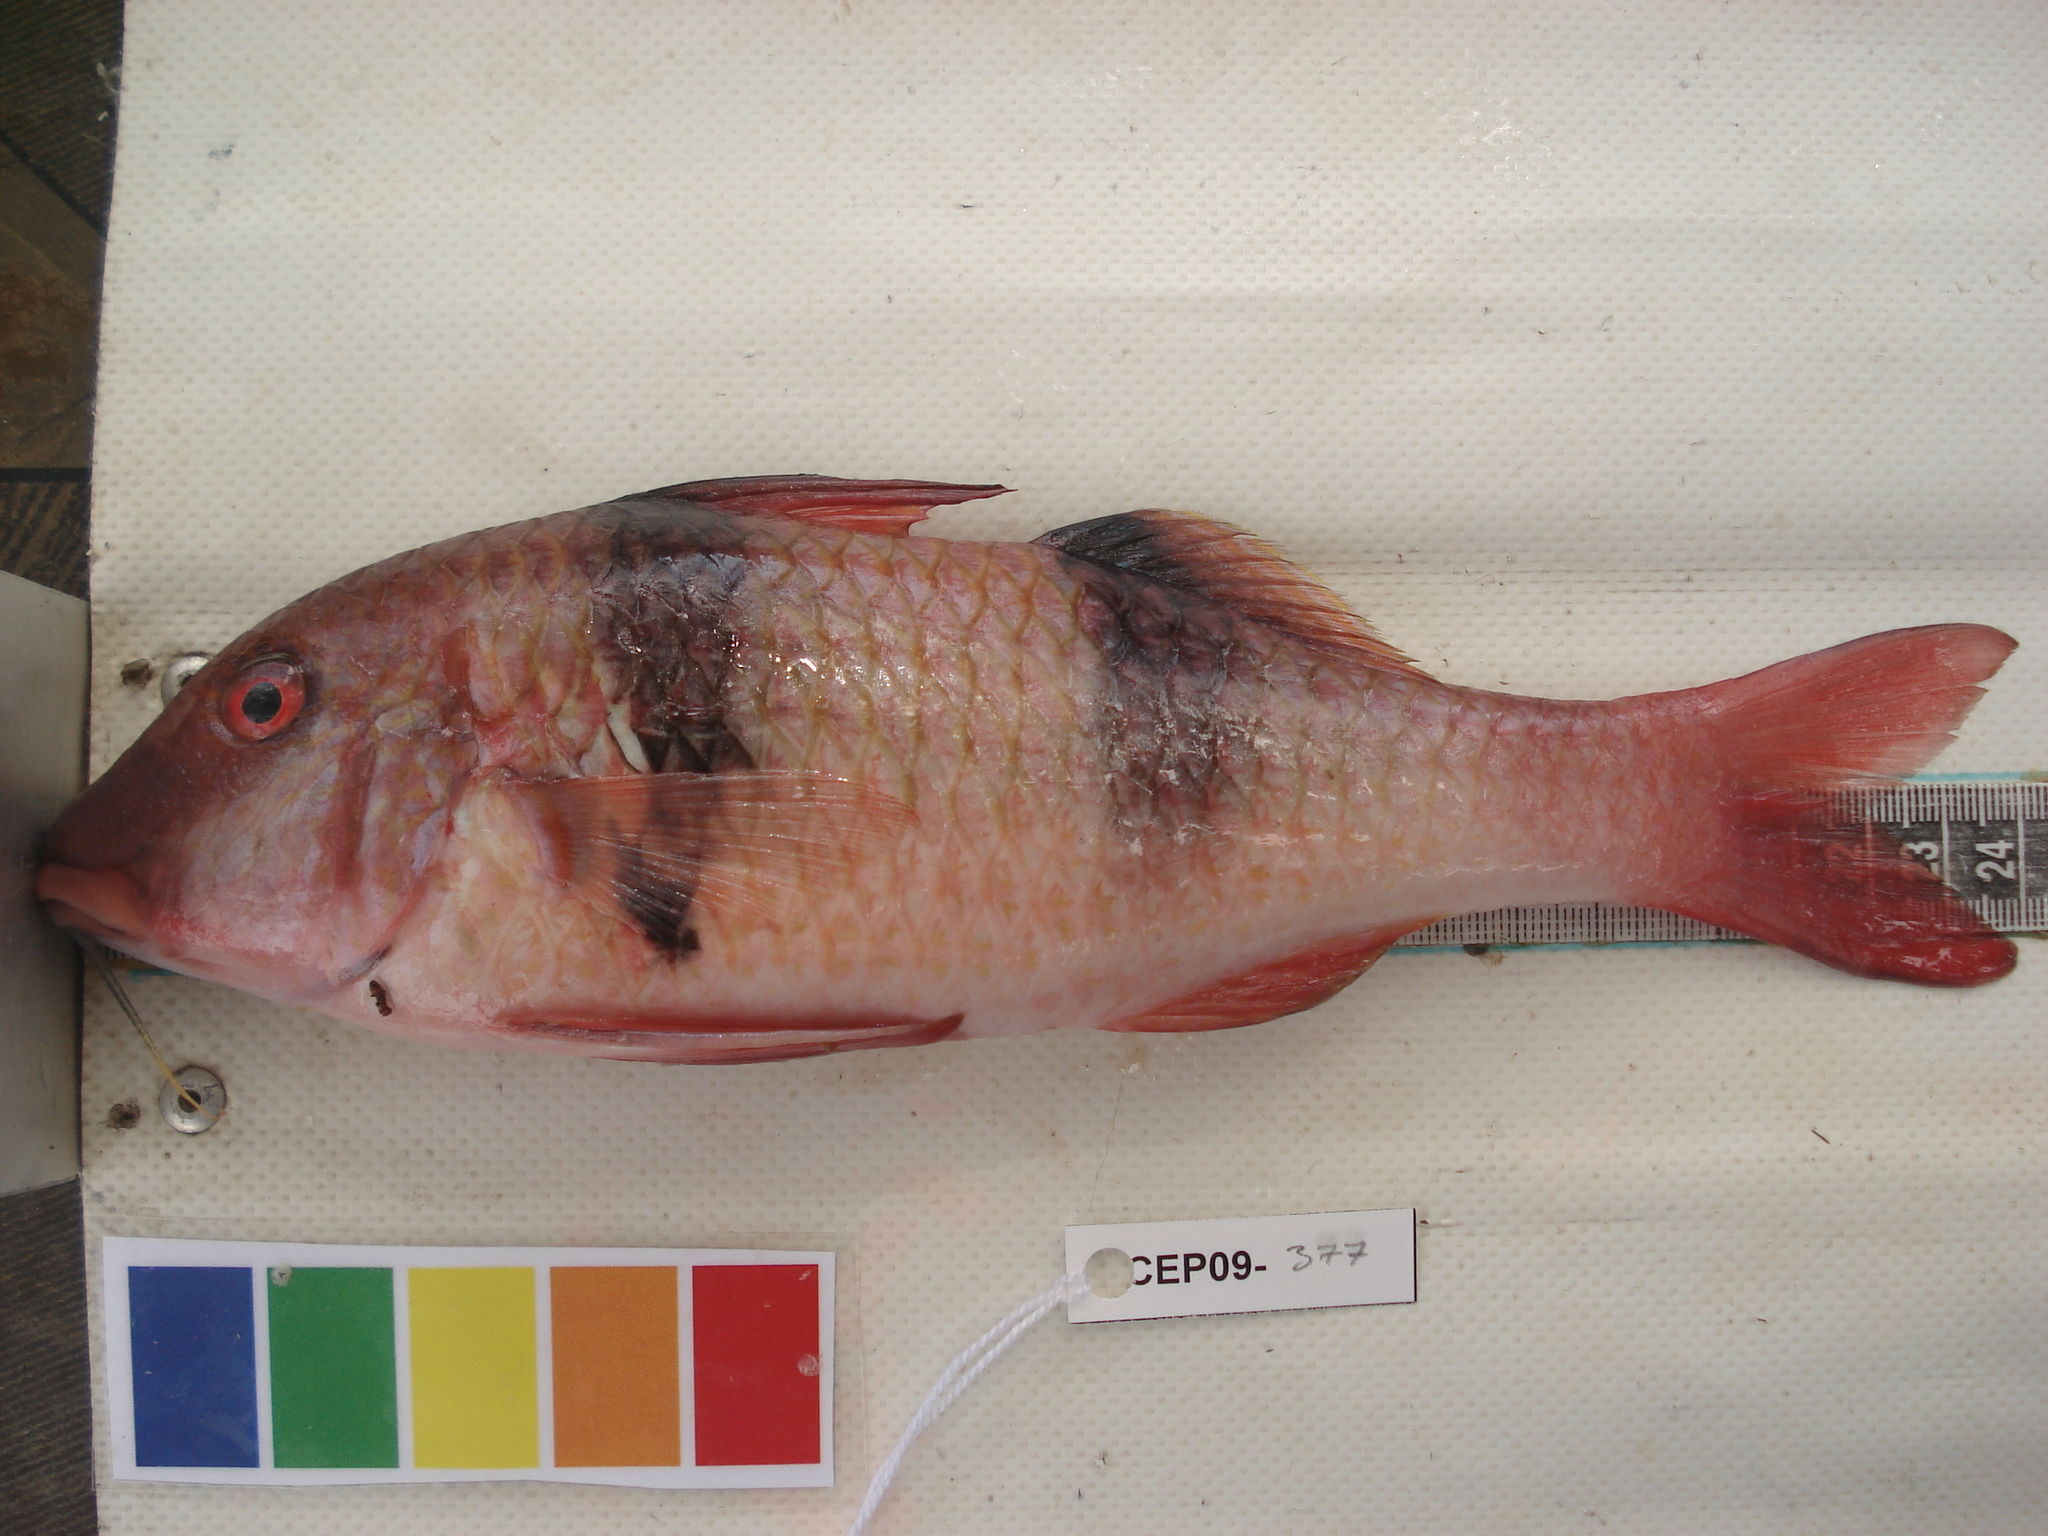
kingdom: Animalia
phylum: Chordata
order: Perciformes
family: Mullidae
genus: Parupeneus
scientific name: Parupeneus trifasciatus
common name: Doublebar goatfish
